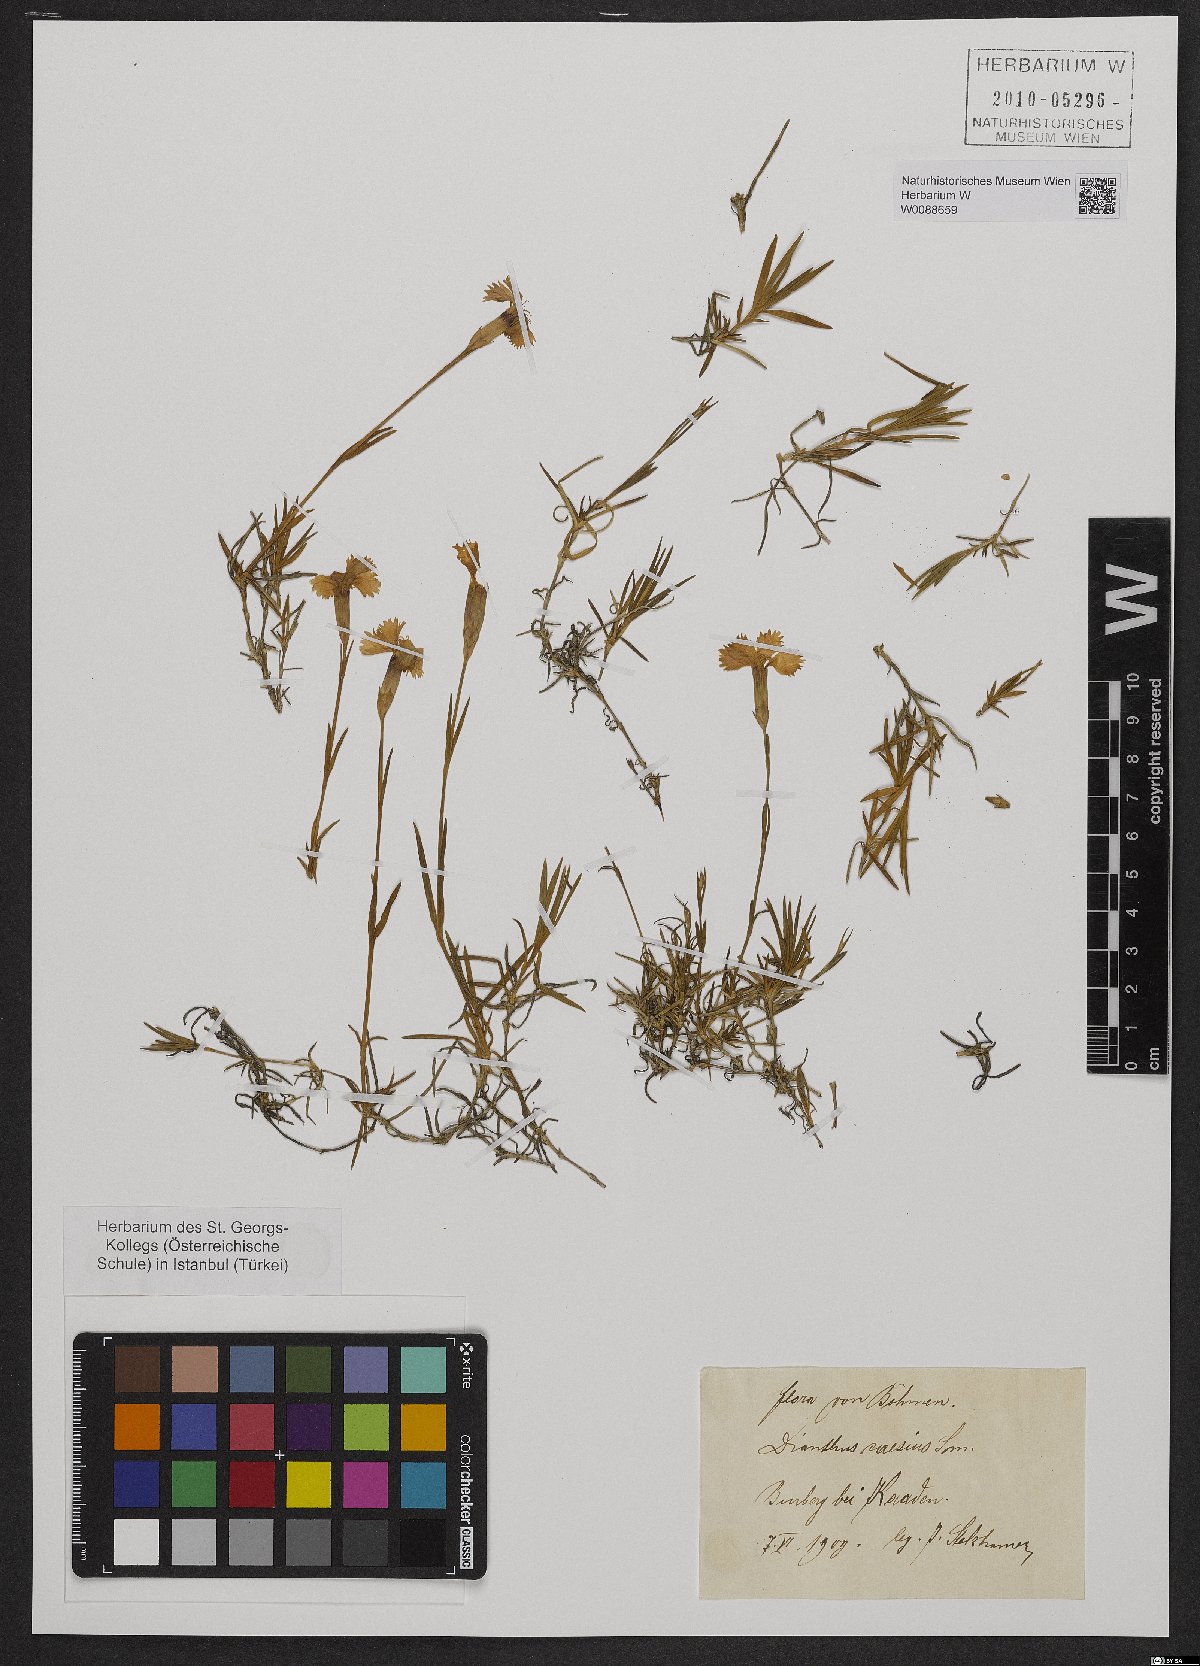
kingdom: Plantae
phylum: Tracheophyta
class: Magnoliopsida
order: Caryophyllales
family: Caryophyllaceae
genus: Dianthus
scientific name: Dianthus gratianopolitanus
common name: Cheddar pink
